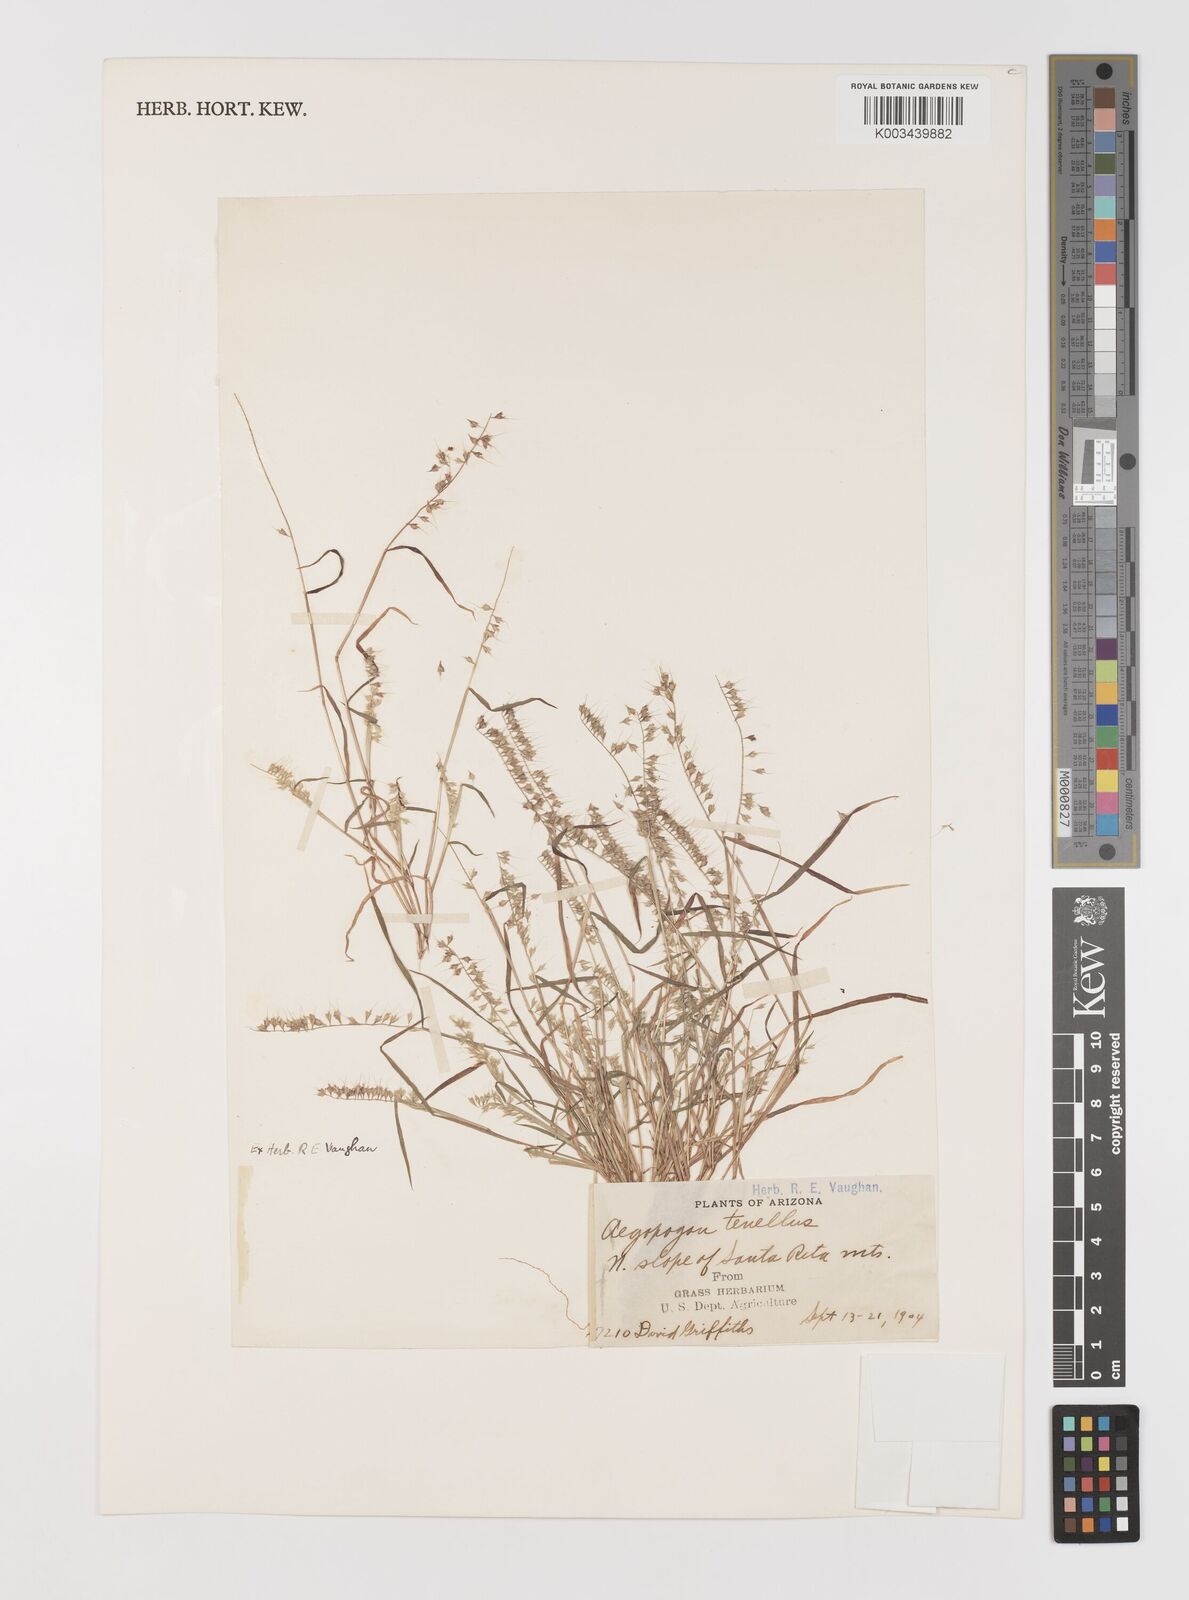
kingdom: Plantae
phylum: Tracheophyta
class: Liliopsida
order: Poales
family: Poaceae
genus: Muhlenbergia
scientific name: Muhlenbergia uniseta
